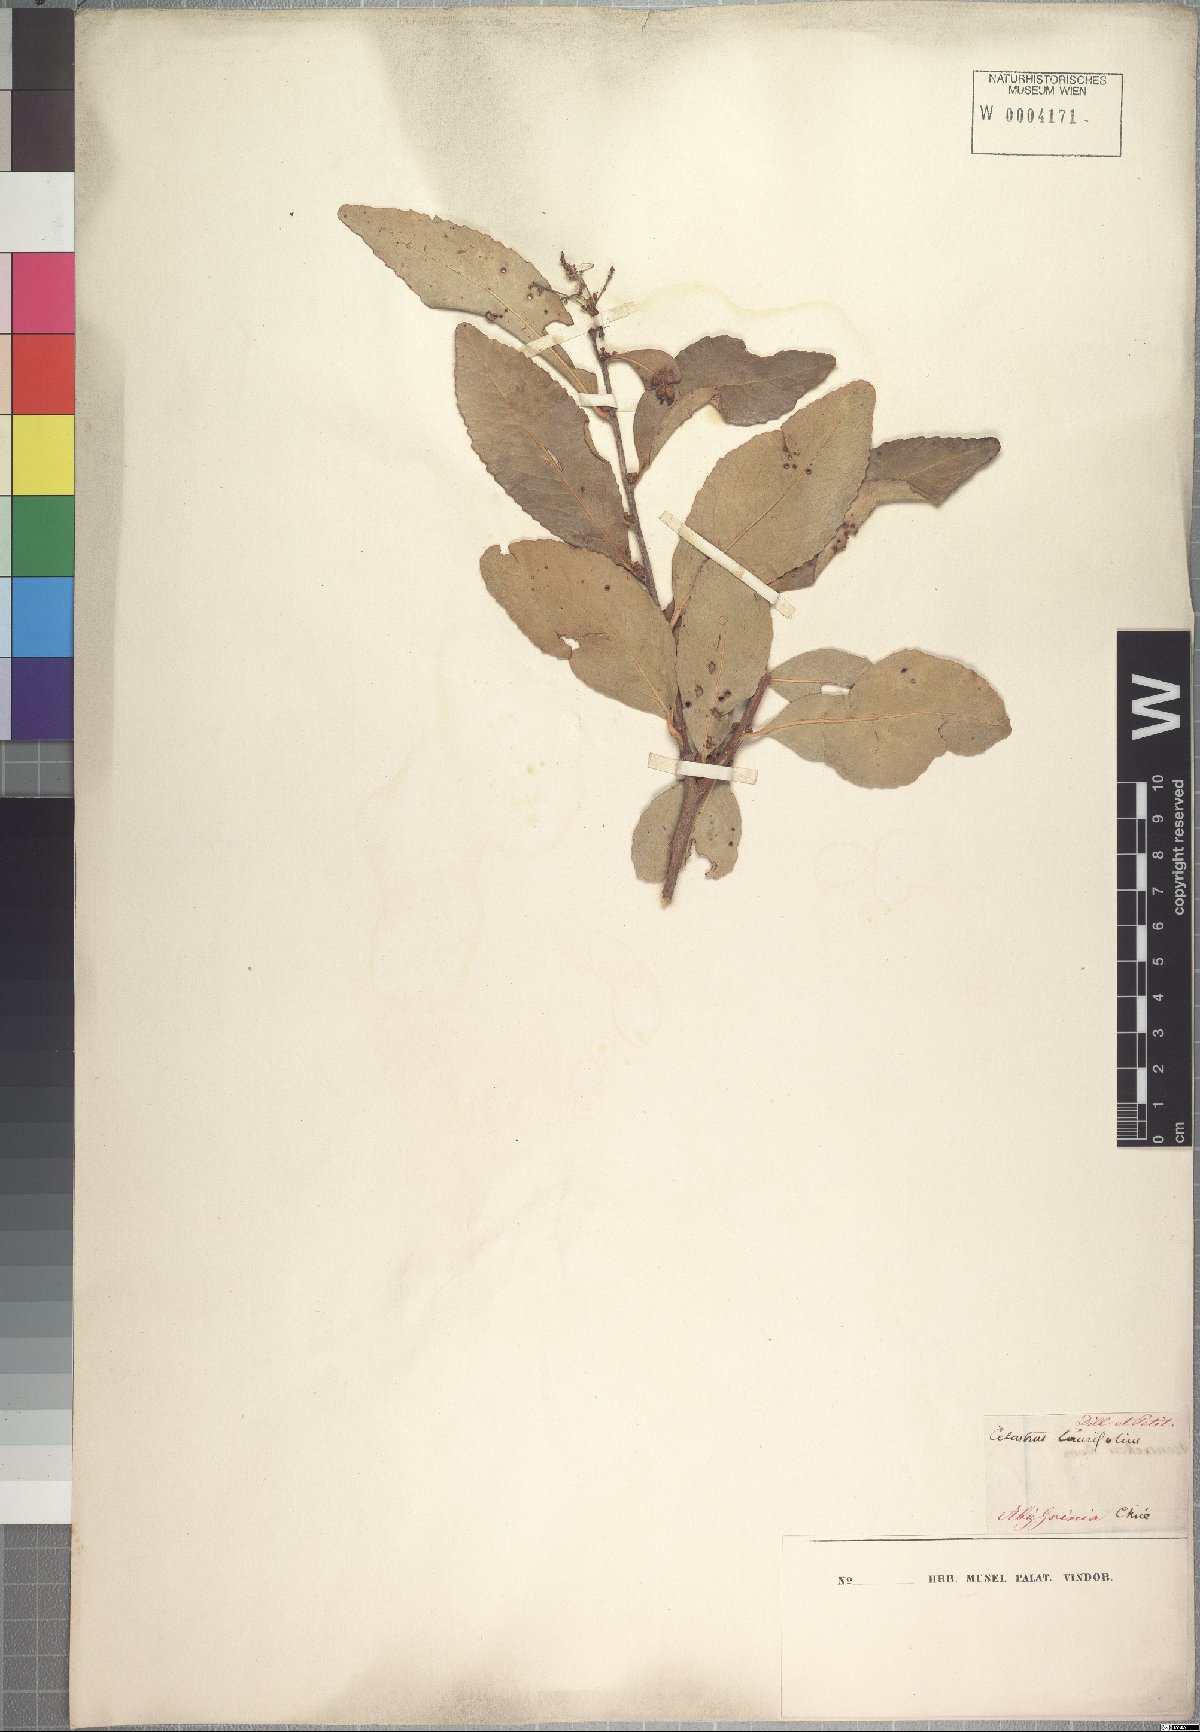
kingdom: Plantae
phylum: Tracheophyta
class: Magnoliopsida
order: Celastrales
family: Celastraceae
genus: Gymnosporia
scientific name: Gymnosporia undata
